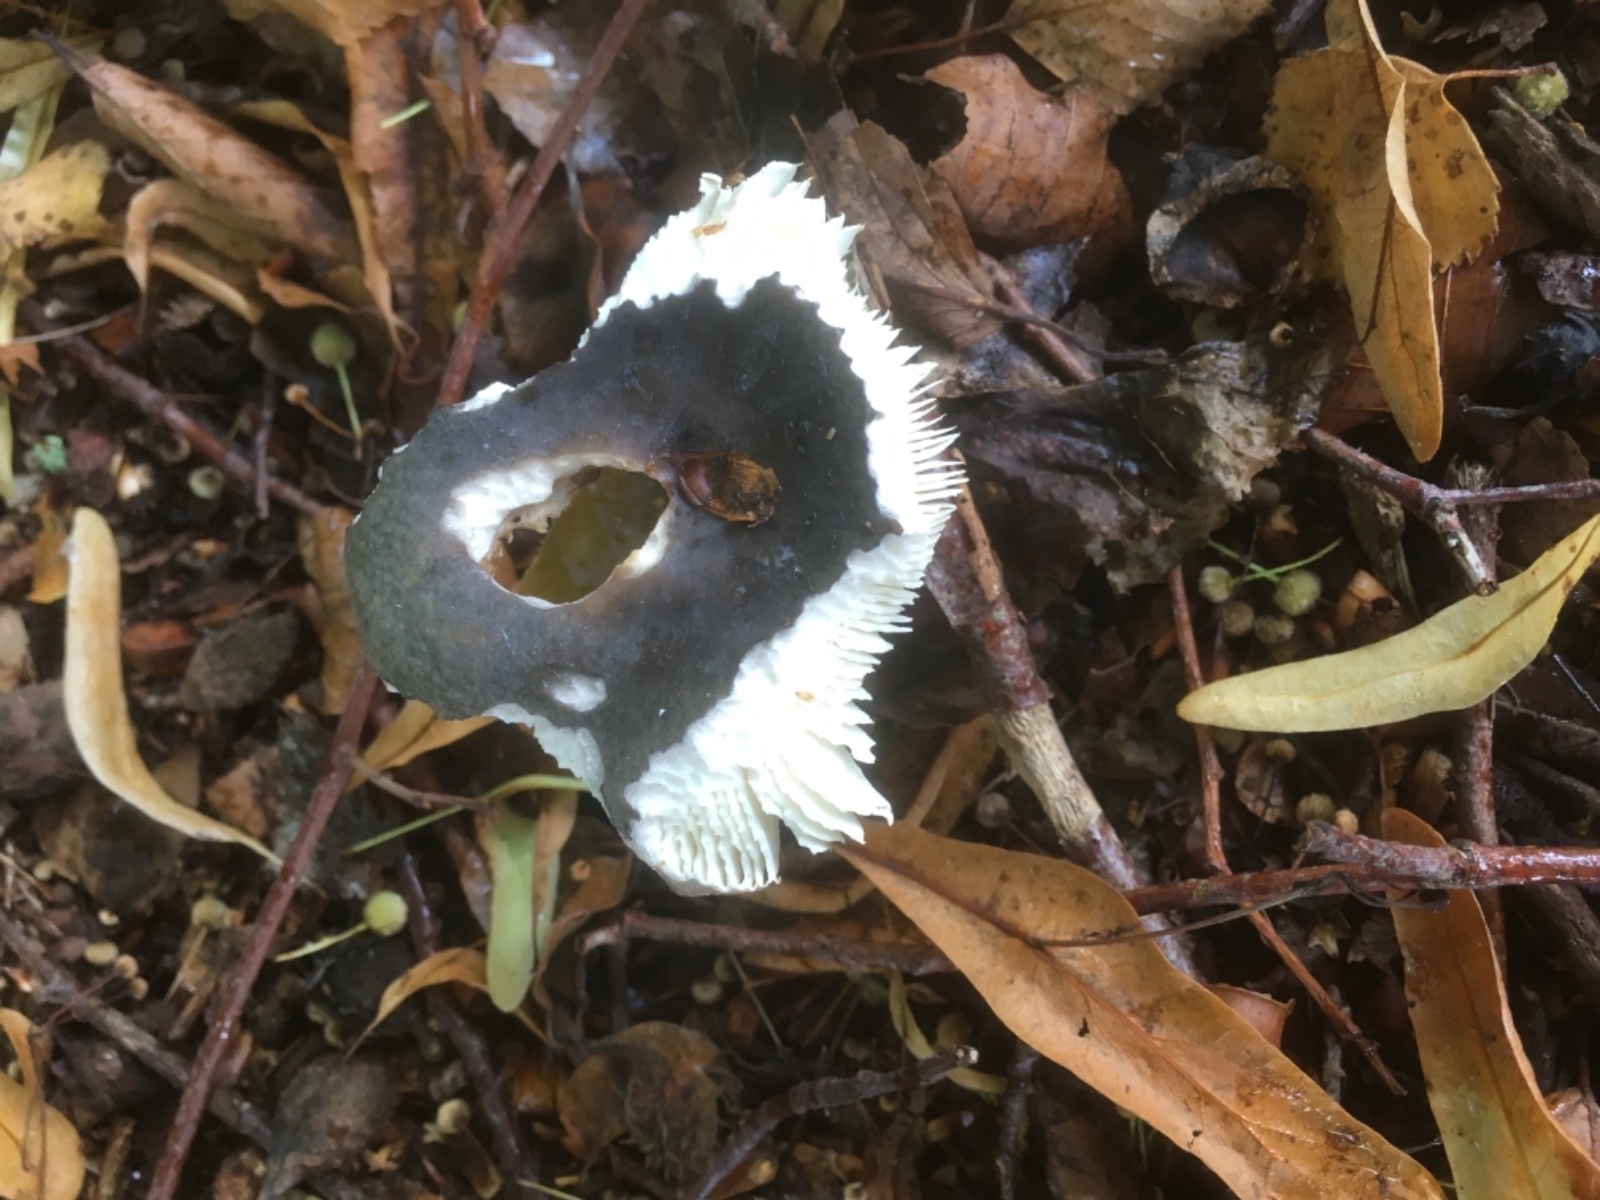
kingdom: Fungi
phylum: Basidiomycota
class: Agaricomycetes
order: Russulales
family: Russulaceae
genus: Russula
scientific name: Russula
